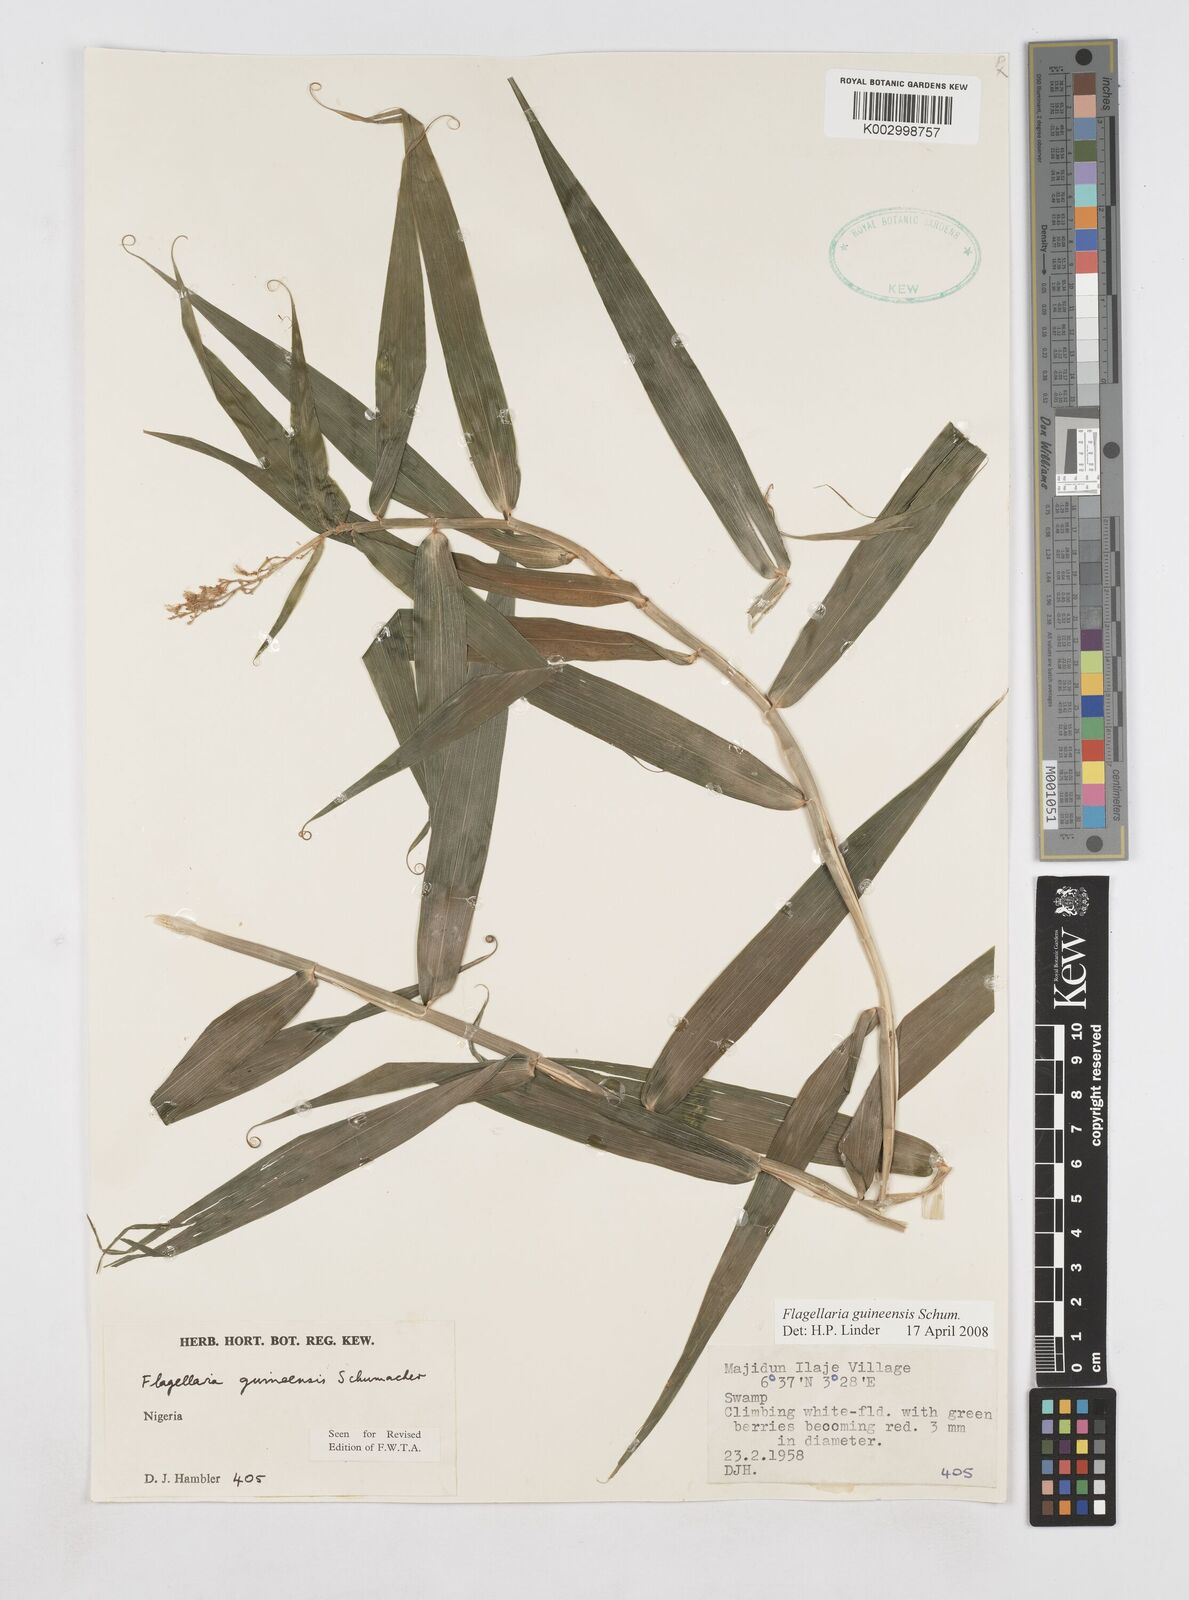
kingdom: Plantae
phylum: Tracheophyta
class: Liliopsida
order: Poales
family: Flagellariaceae
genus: Flagellaria
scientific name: Flagellaria guineensis
